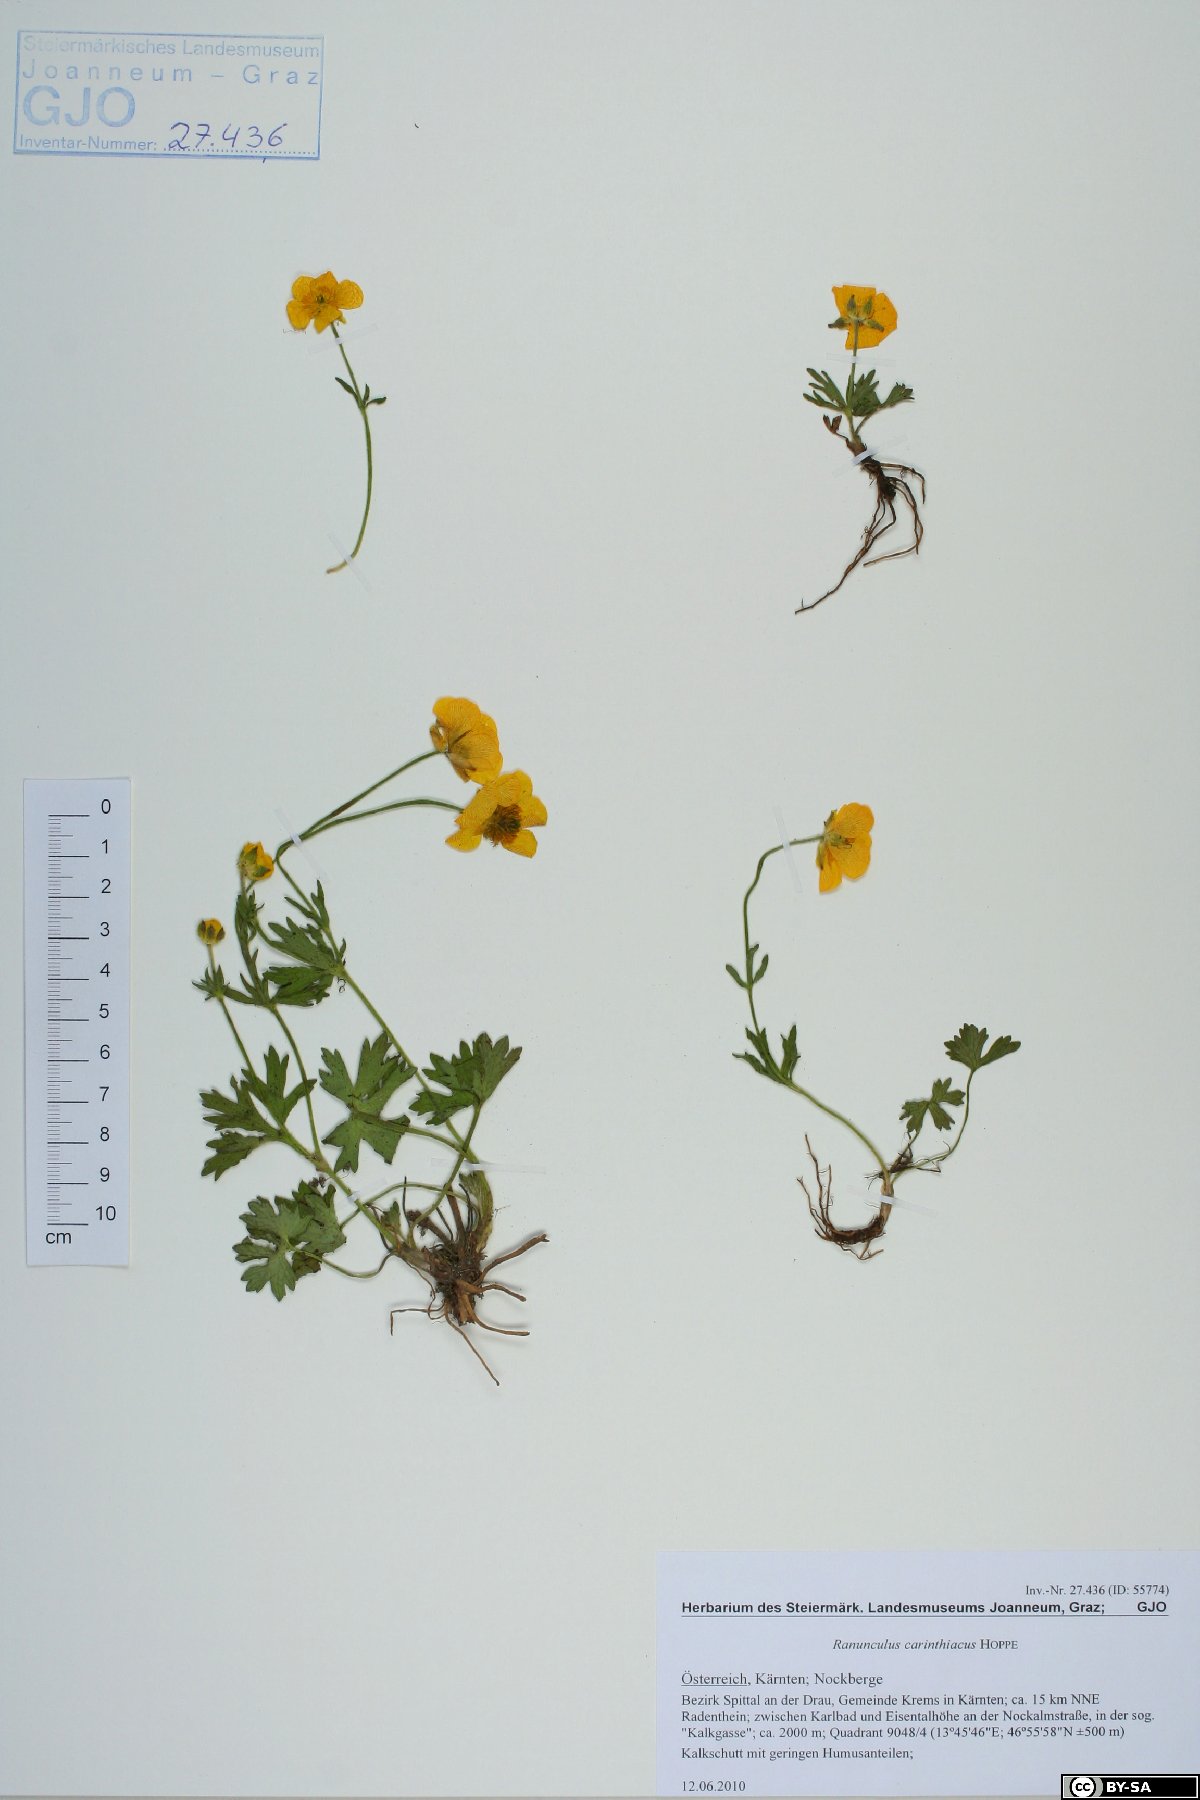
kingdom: Plantae
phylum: Tracheophyta
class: Magnoliopsida
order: Ranunculales
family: Ranunculaceae
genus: Ranunculus
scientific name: Ranunculus carinthiacus
